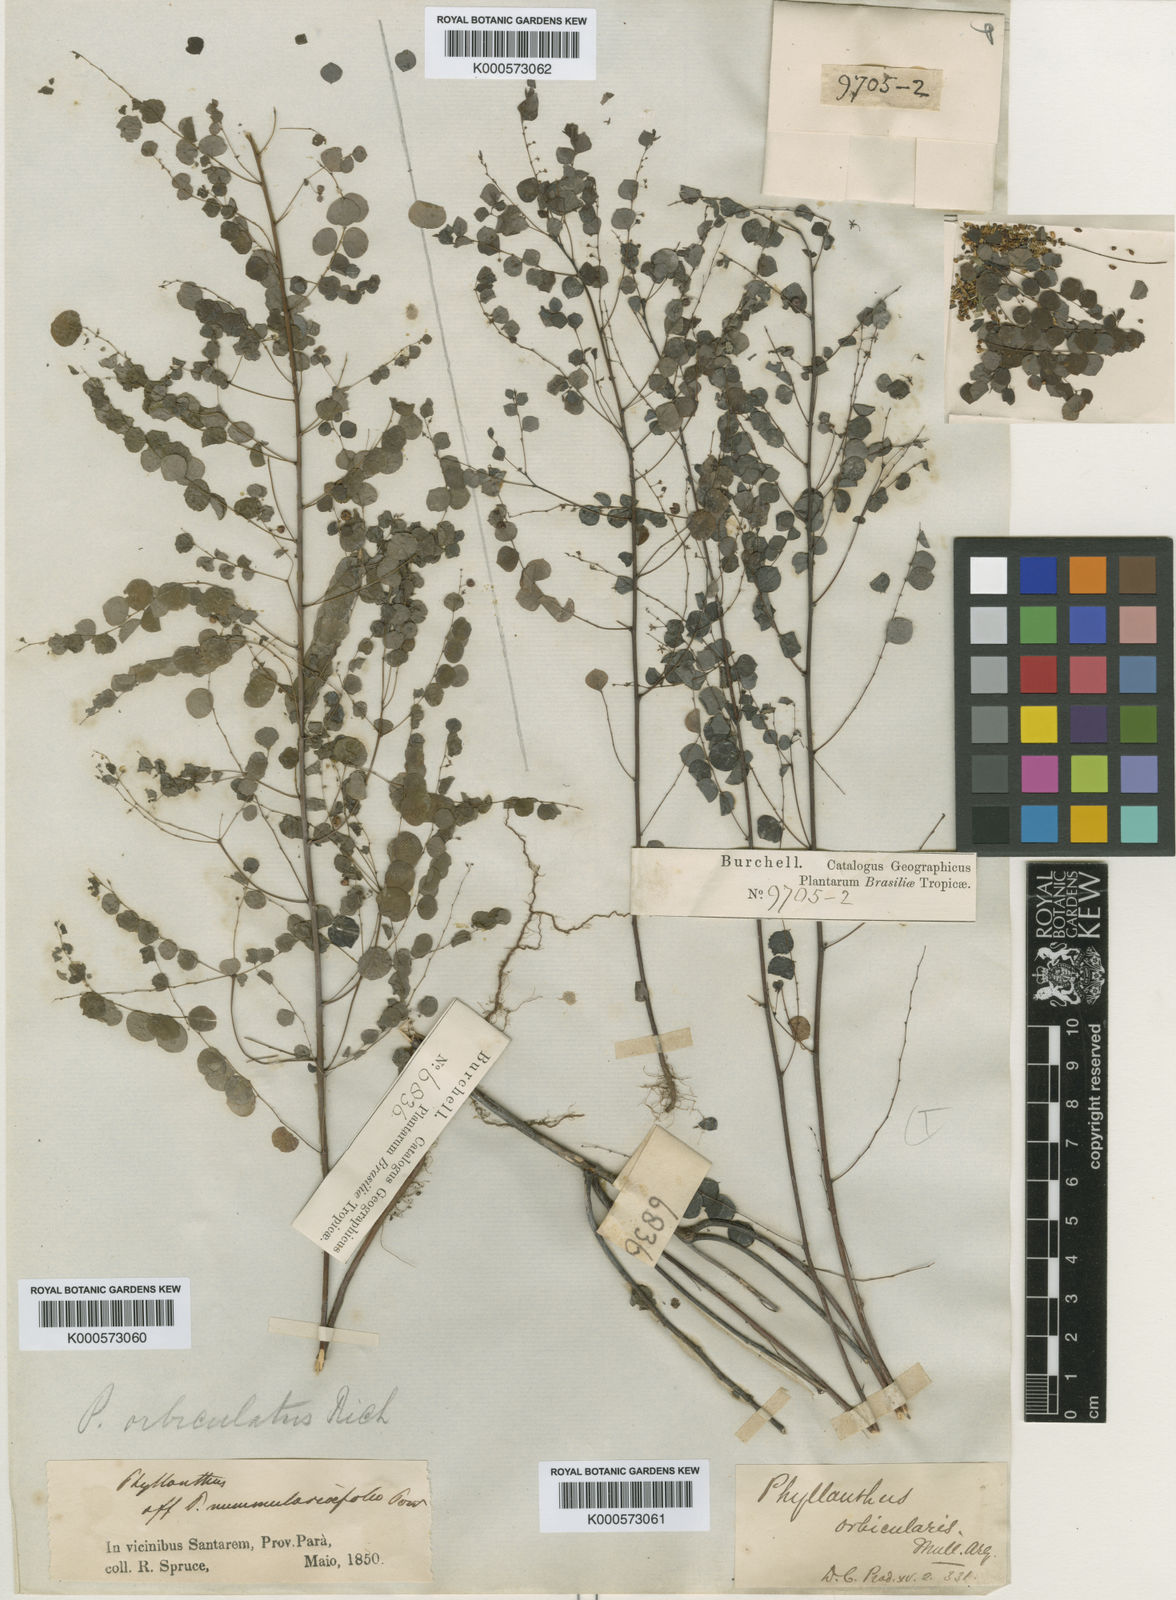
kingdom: Plantae
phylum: Tracheophyta
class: Magnoliopsida
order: Malpighiales
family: Phyllanthaceae
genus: Phyllanthus
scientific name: Phyllanthus orbiculatus
